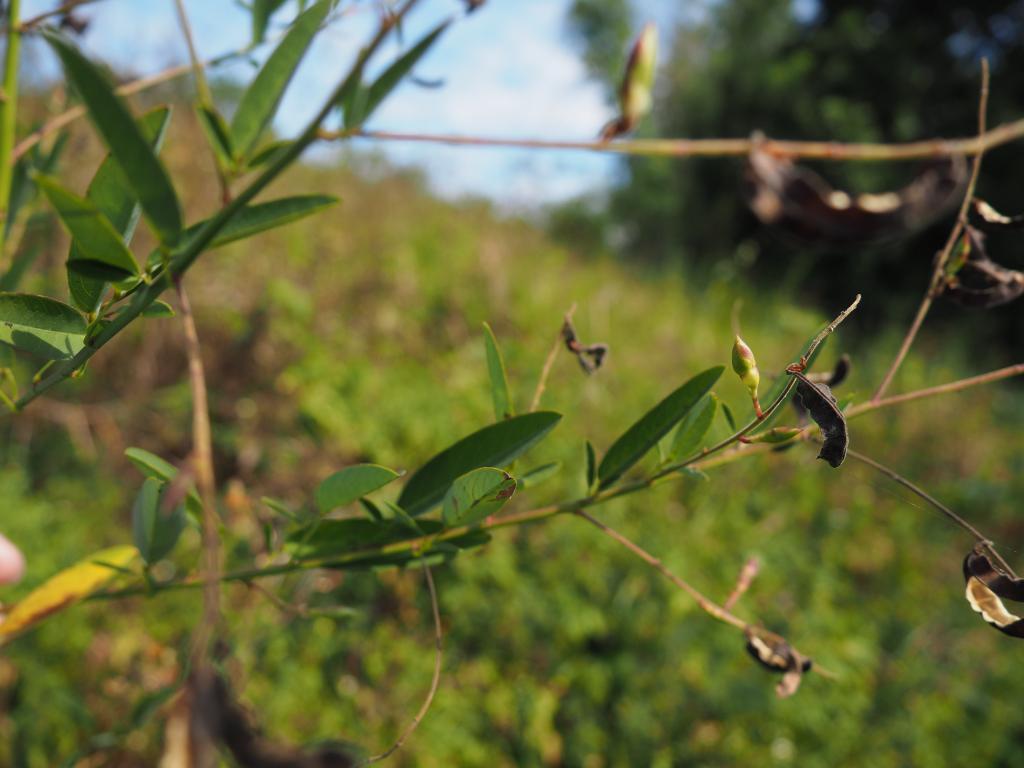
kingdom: Plantae
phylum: Tracheophyta
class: Magnoliopsida
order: Fabales
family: Fabaceae
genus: Codariocalyx
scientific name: Codariocalyx motorius
